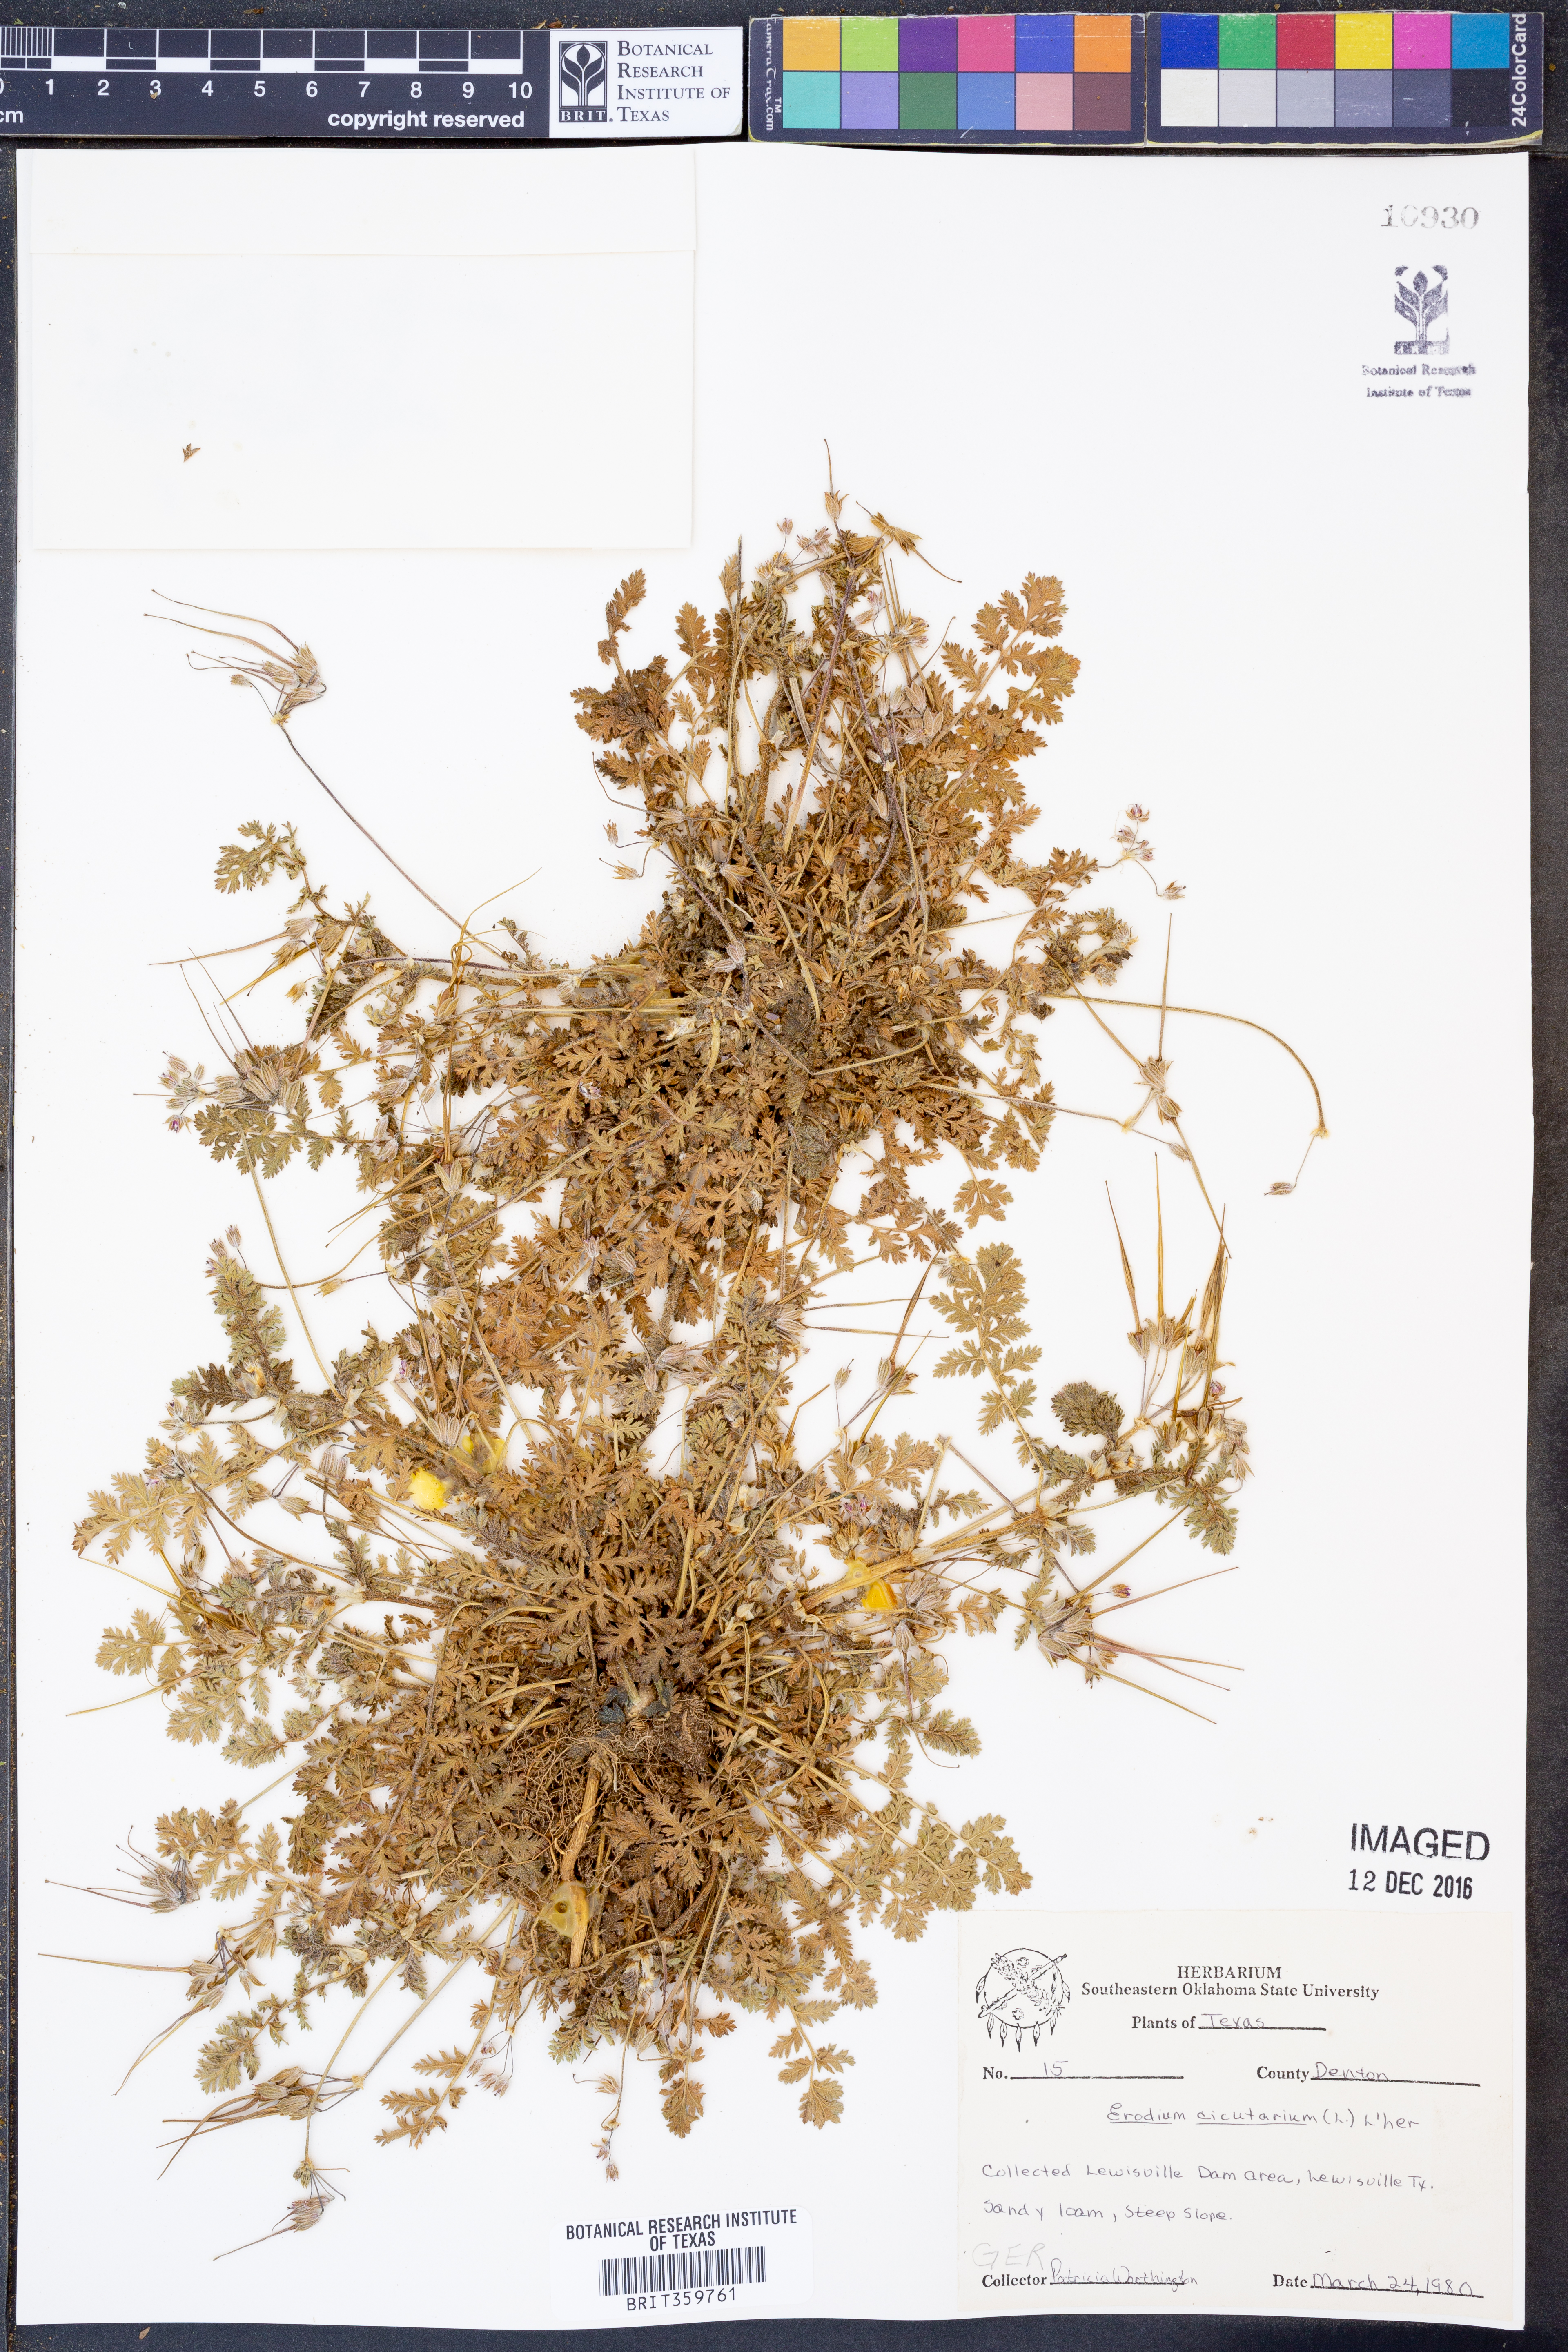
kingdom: Plantae
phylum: Tracheophyta
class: Magnoliopsida
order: Geraniales
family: Geraniaceae
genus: Erodium
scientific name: Erodium cicutarium
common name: Common stork's-bill
